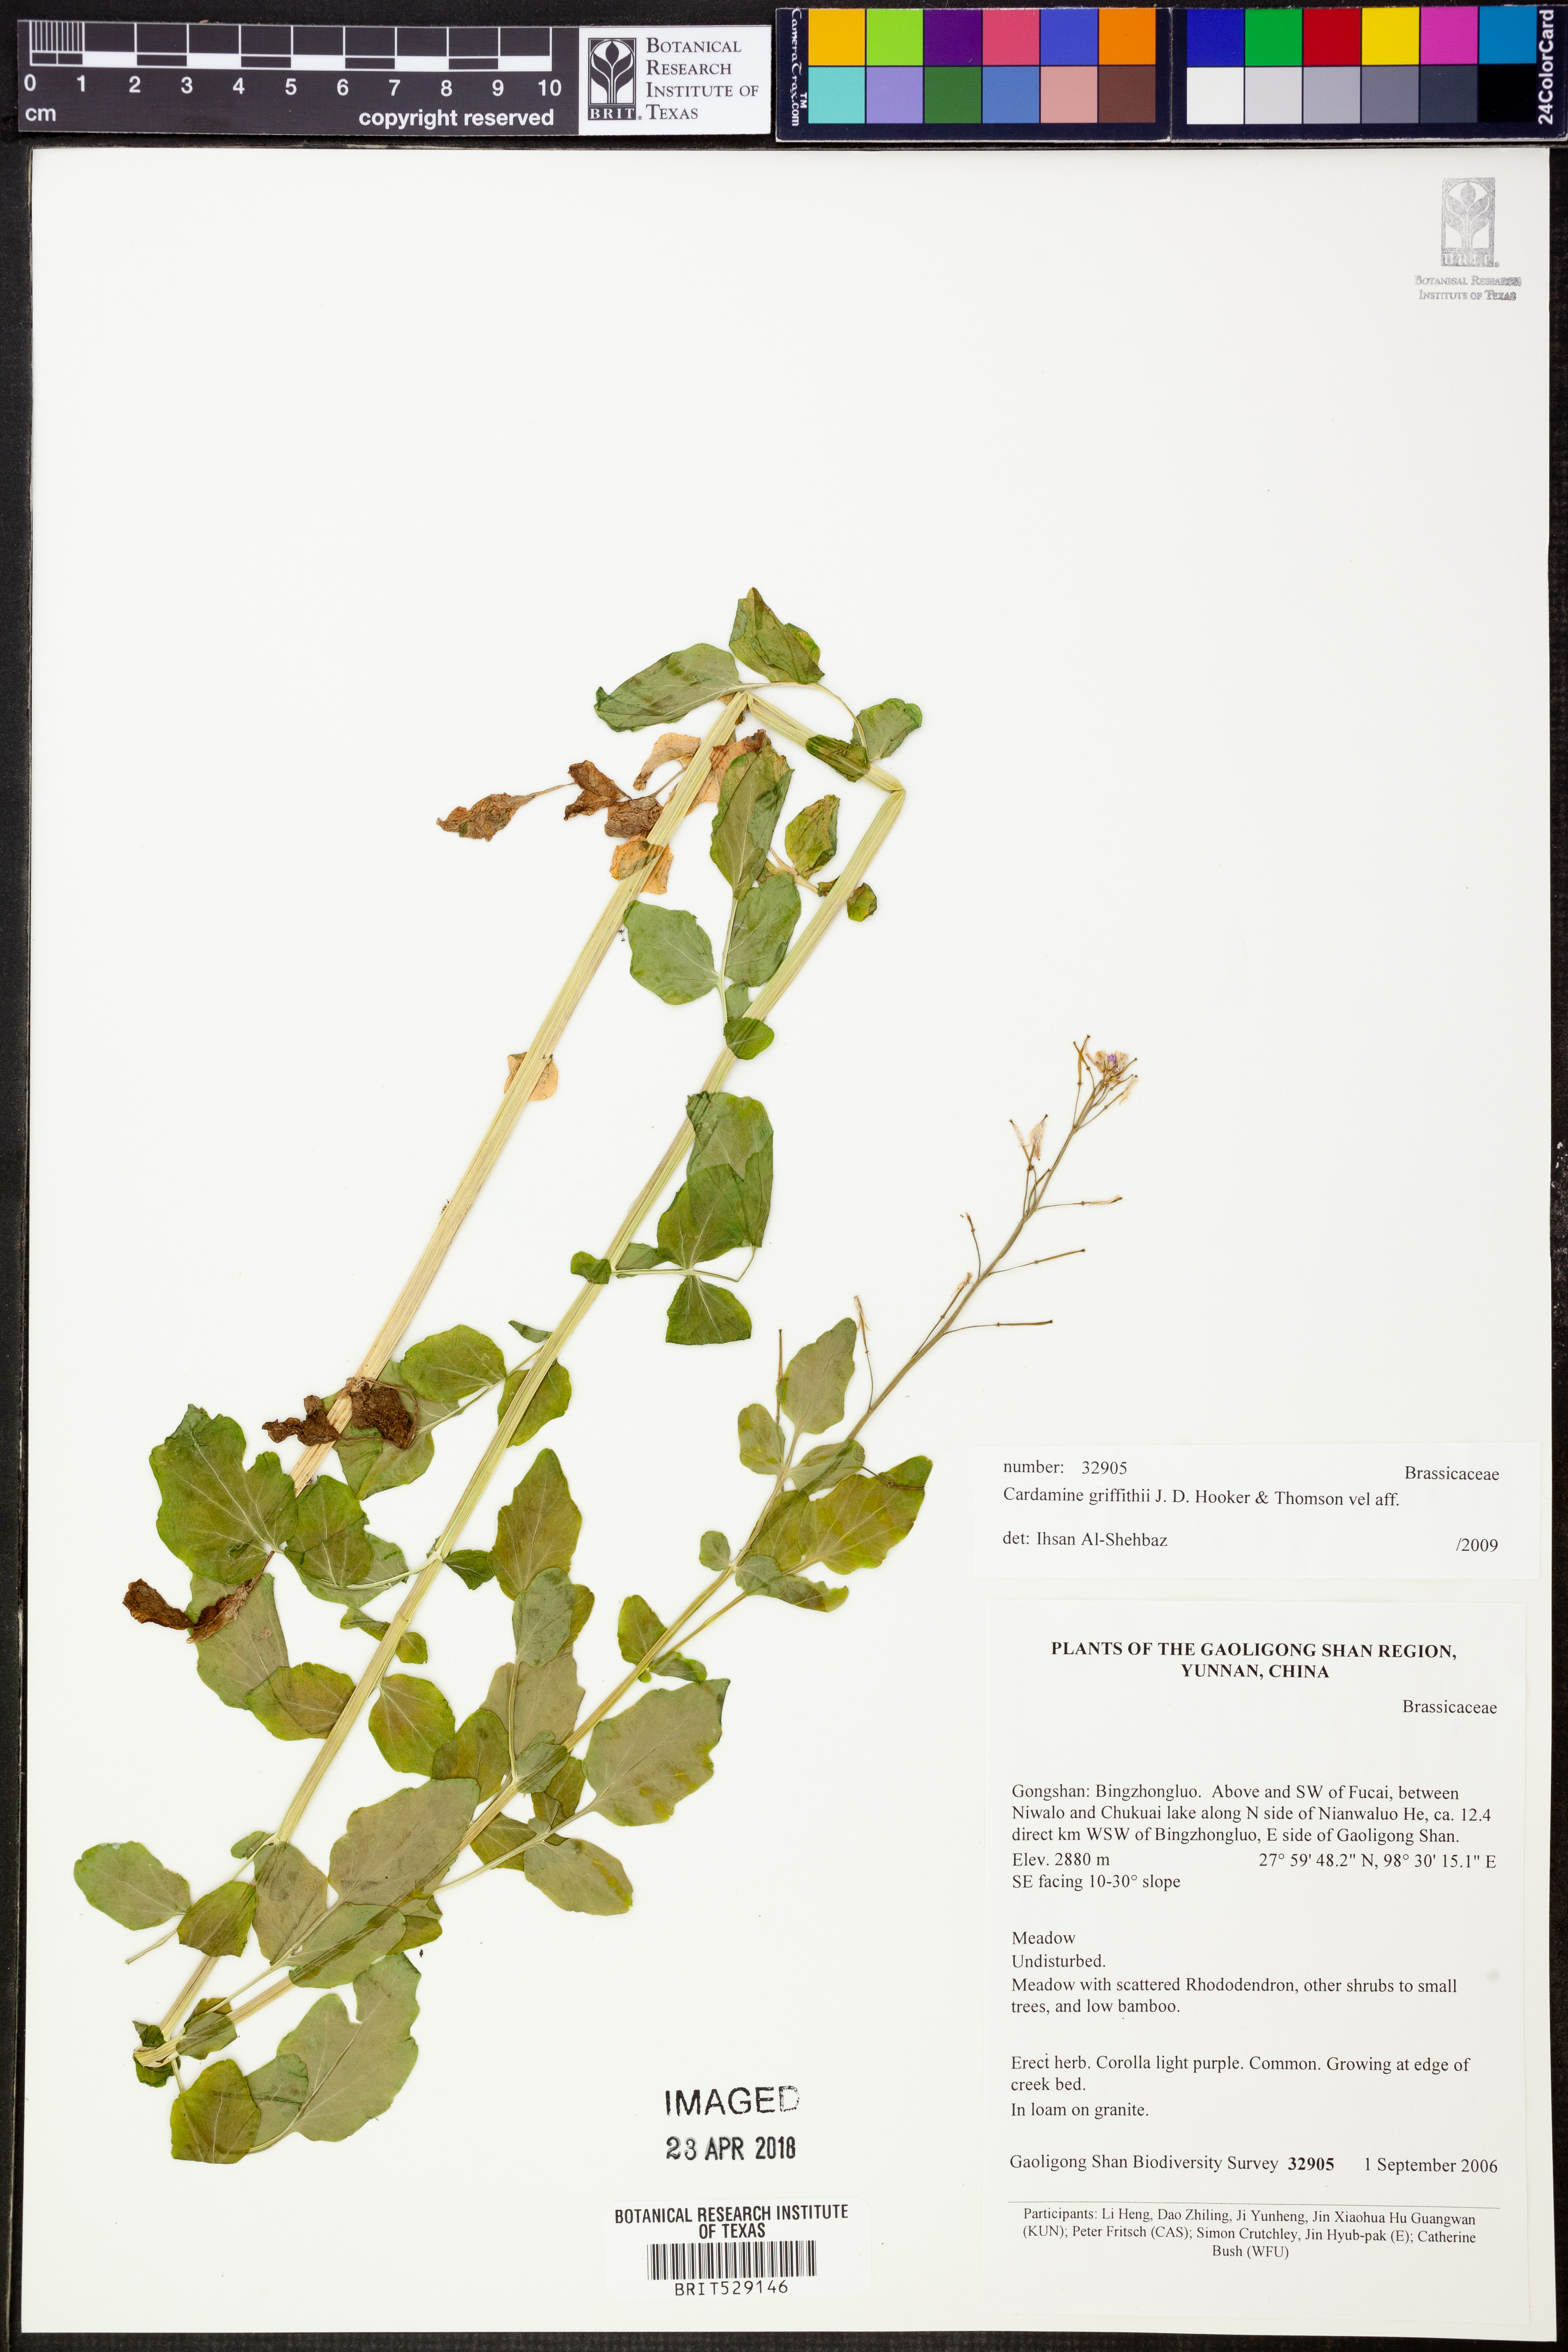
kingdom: Plantae
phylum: Tracheophyta
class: Magnoliopsida
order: Brassicales
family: Brassicaceae
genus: Cardamine
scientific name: Cardamine griffithii
